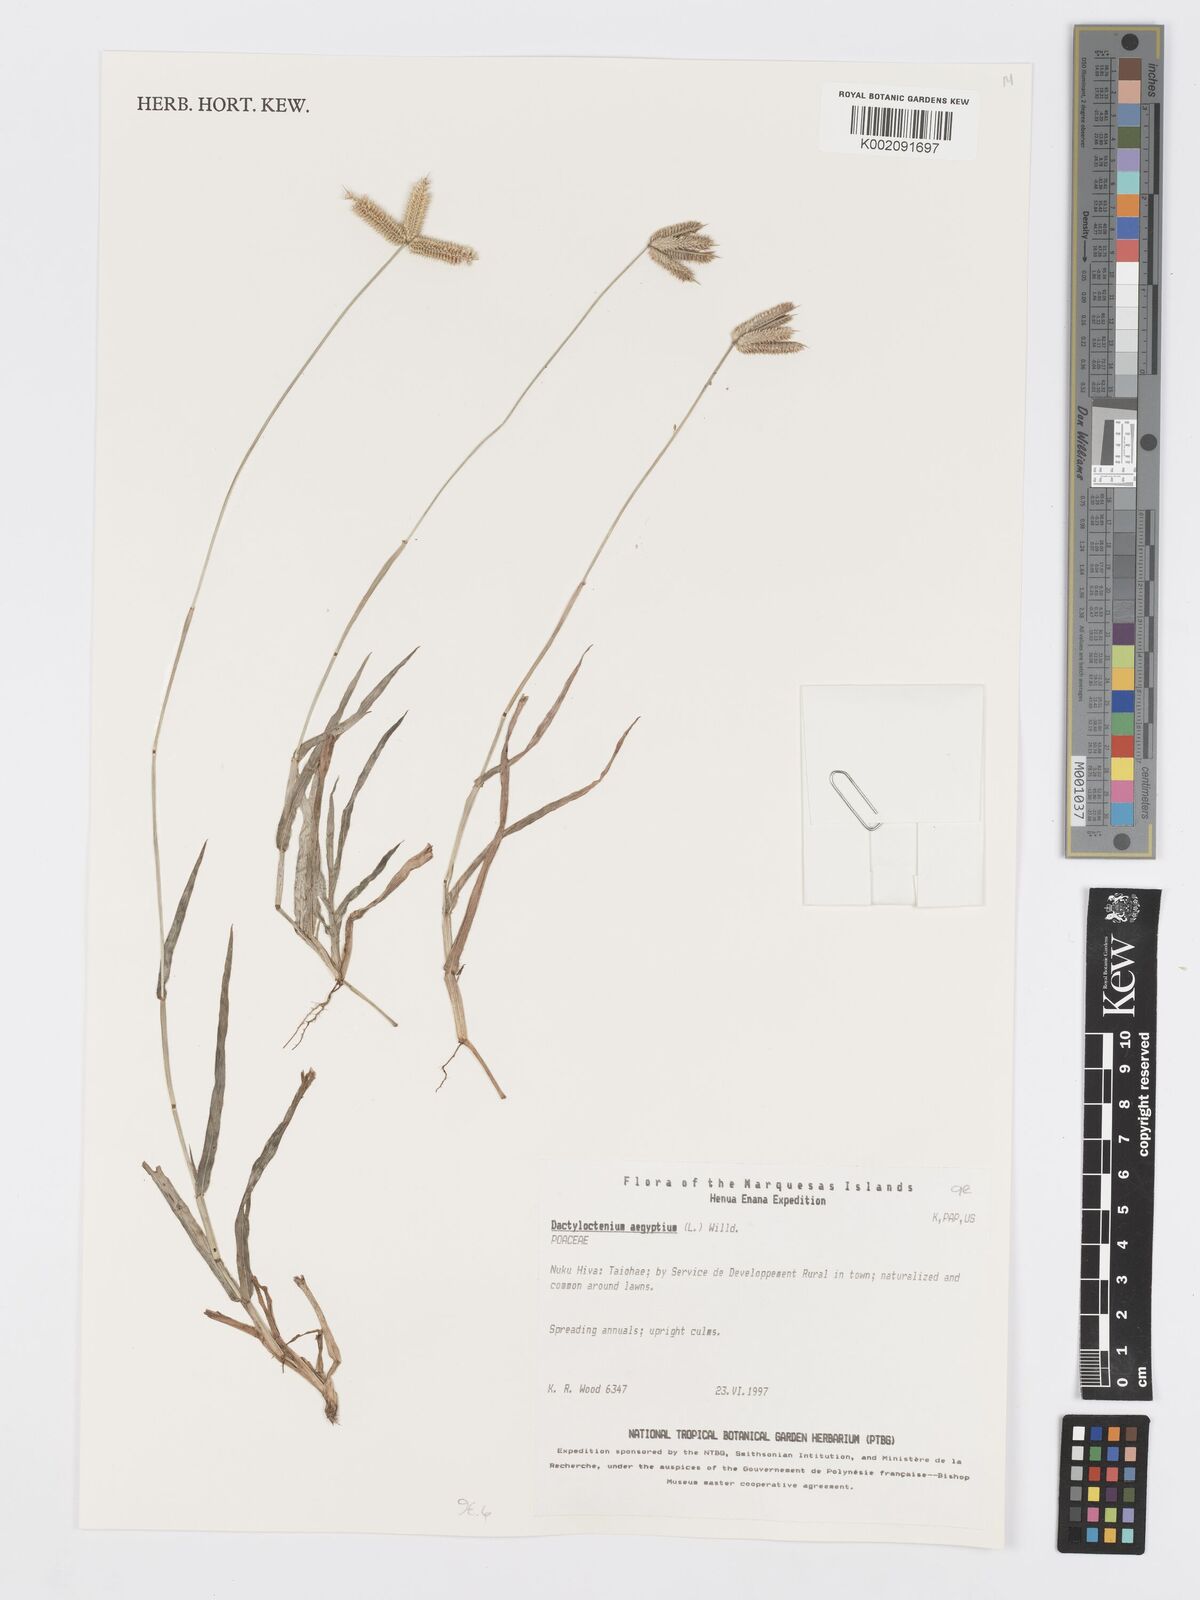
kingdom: Plantae
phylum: Tracheophyta
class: Liliopsida
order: Poales
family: Poaceae
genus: Dactyloctenium
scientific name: Dactyloctenium aegyptium
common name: Egyptian grass
